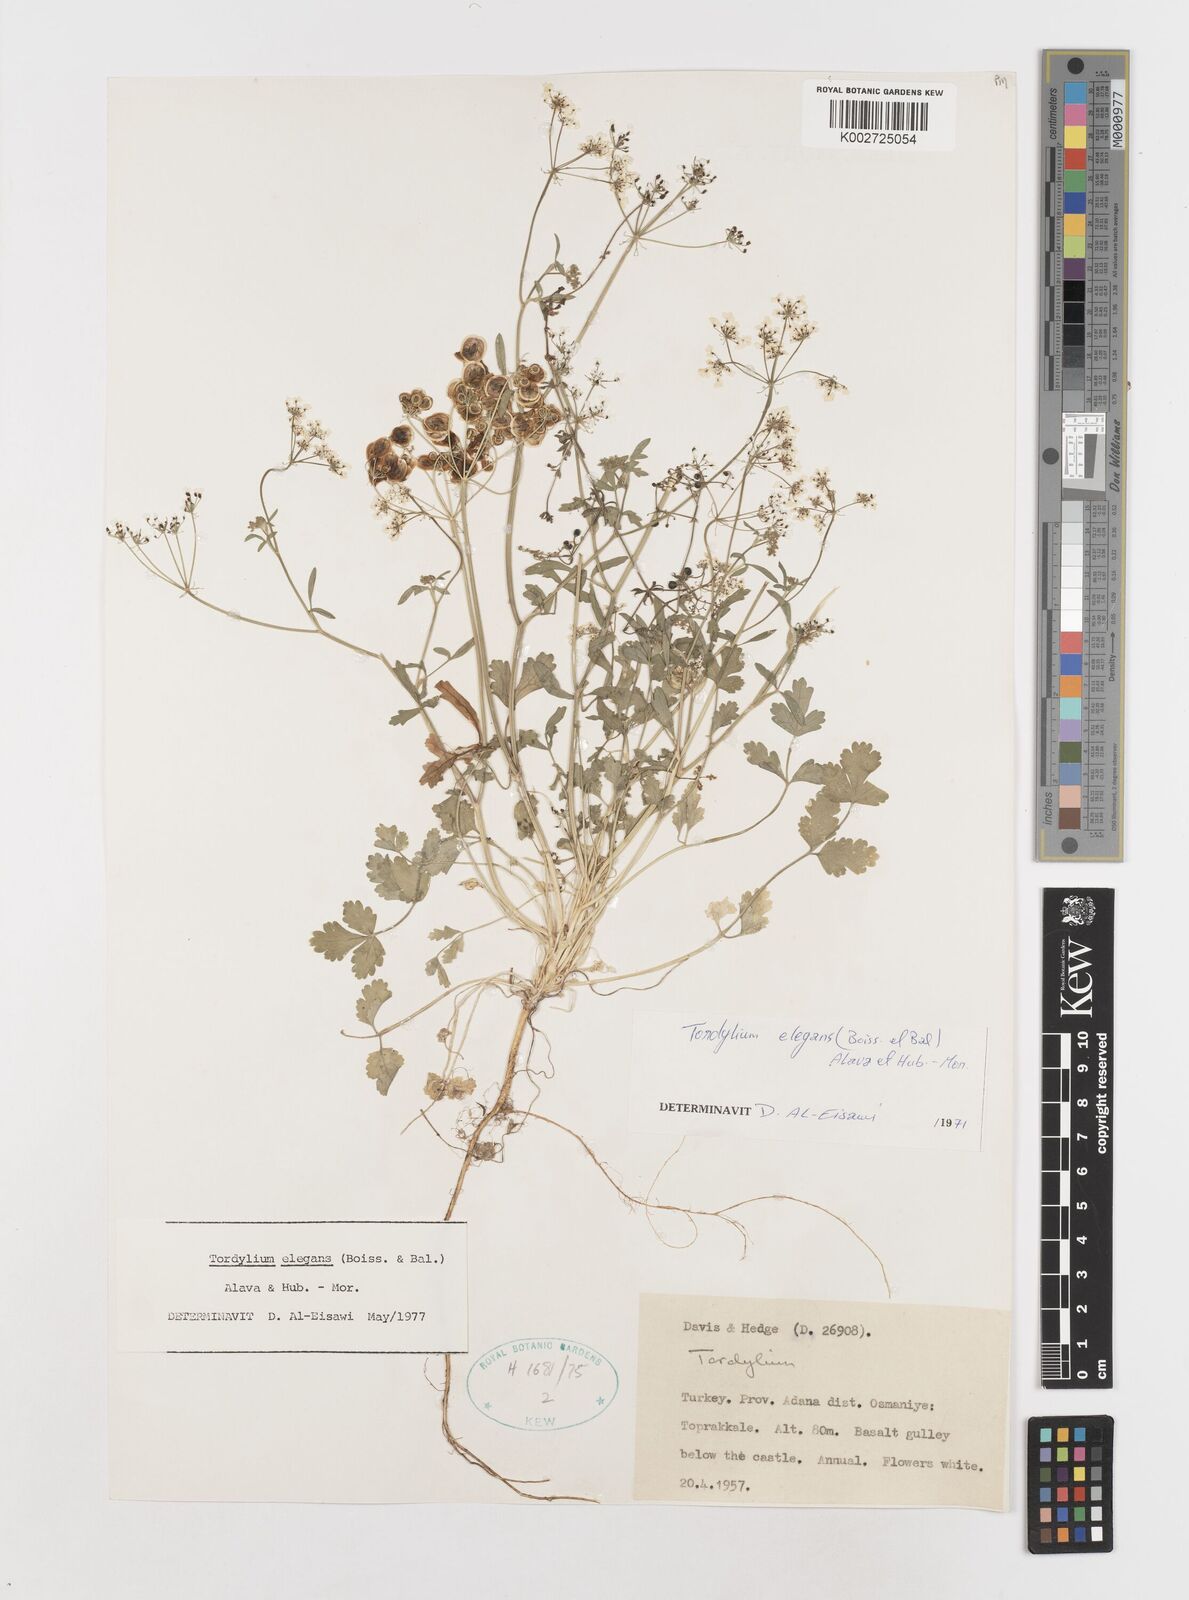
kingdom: Plantae
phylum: Tracheophyta
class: Magnoliopsida
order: Apiales
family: Apiaceae
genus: Ainsworthia
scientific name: Ainsworthia elegans
